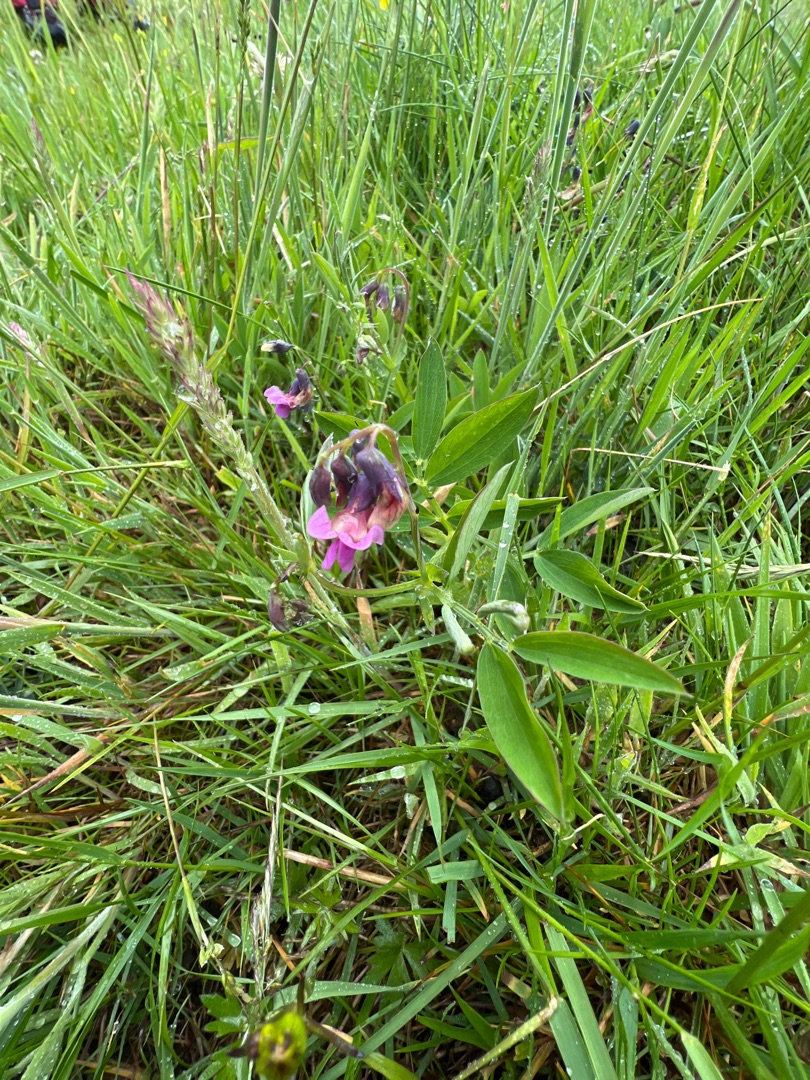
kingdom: Plantae
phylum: Tracheophyta
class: Magnoliopsida
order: Fabales
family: Fabaceae
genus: Lathyrus
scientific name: Lathyrus linifolius
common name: Krat-fladbælg
